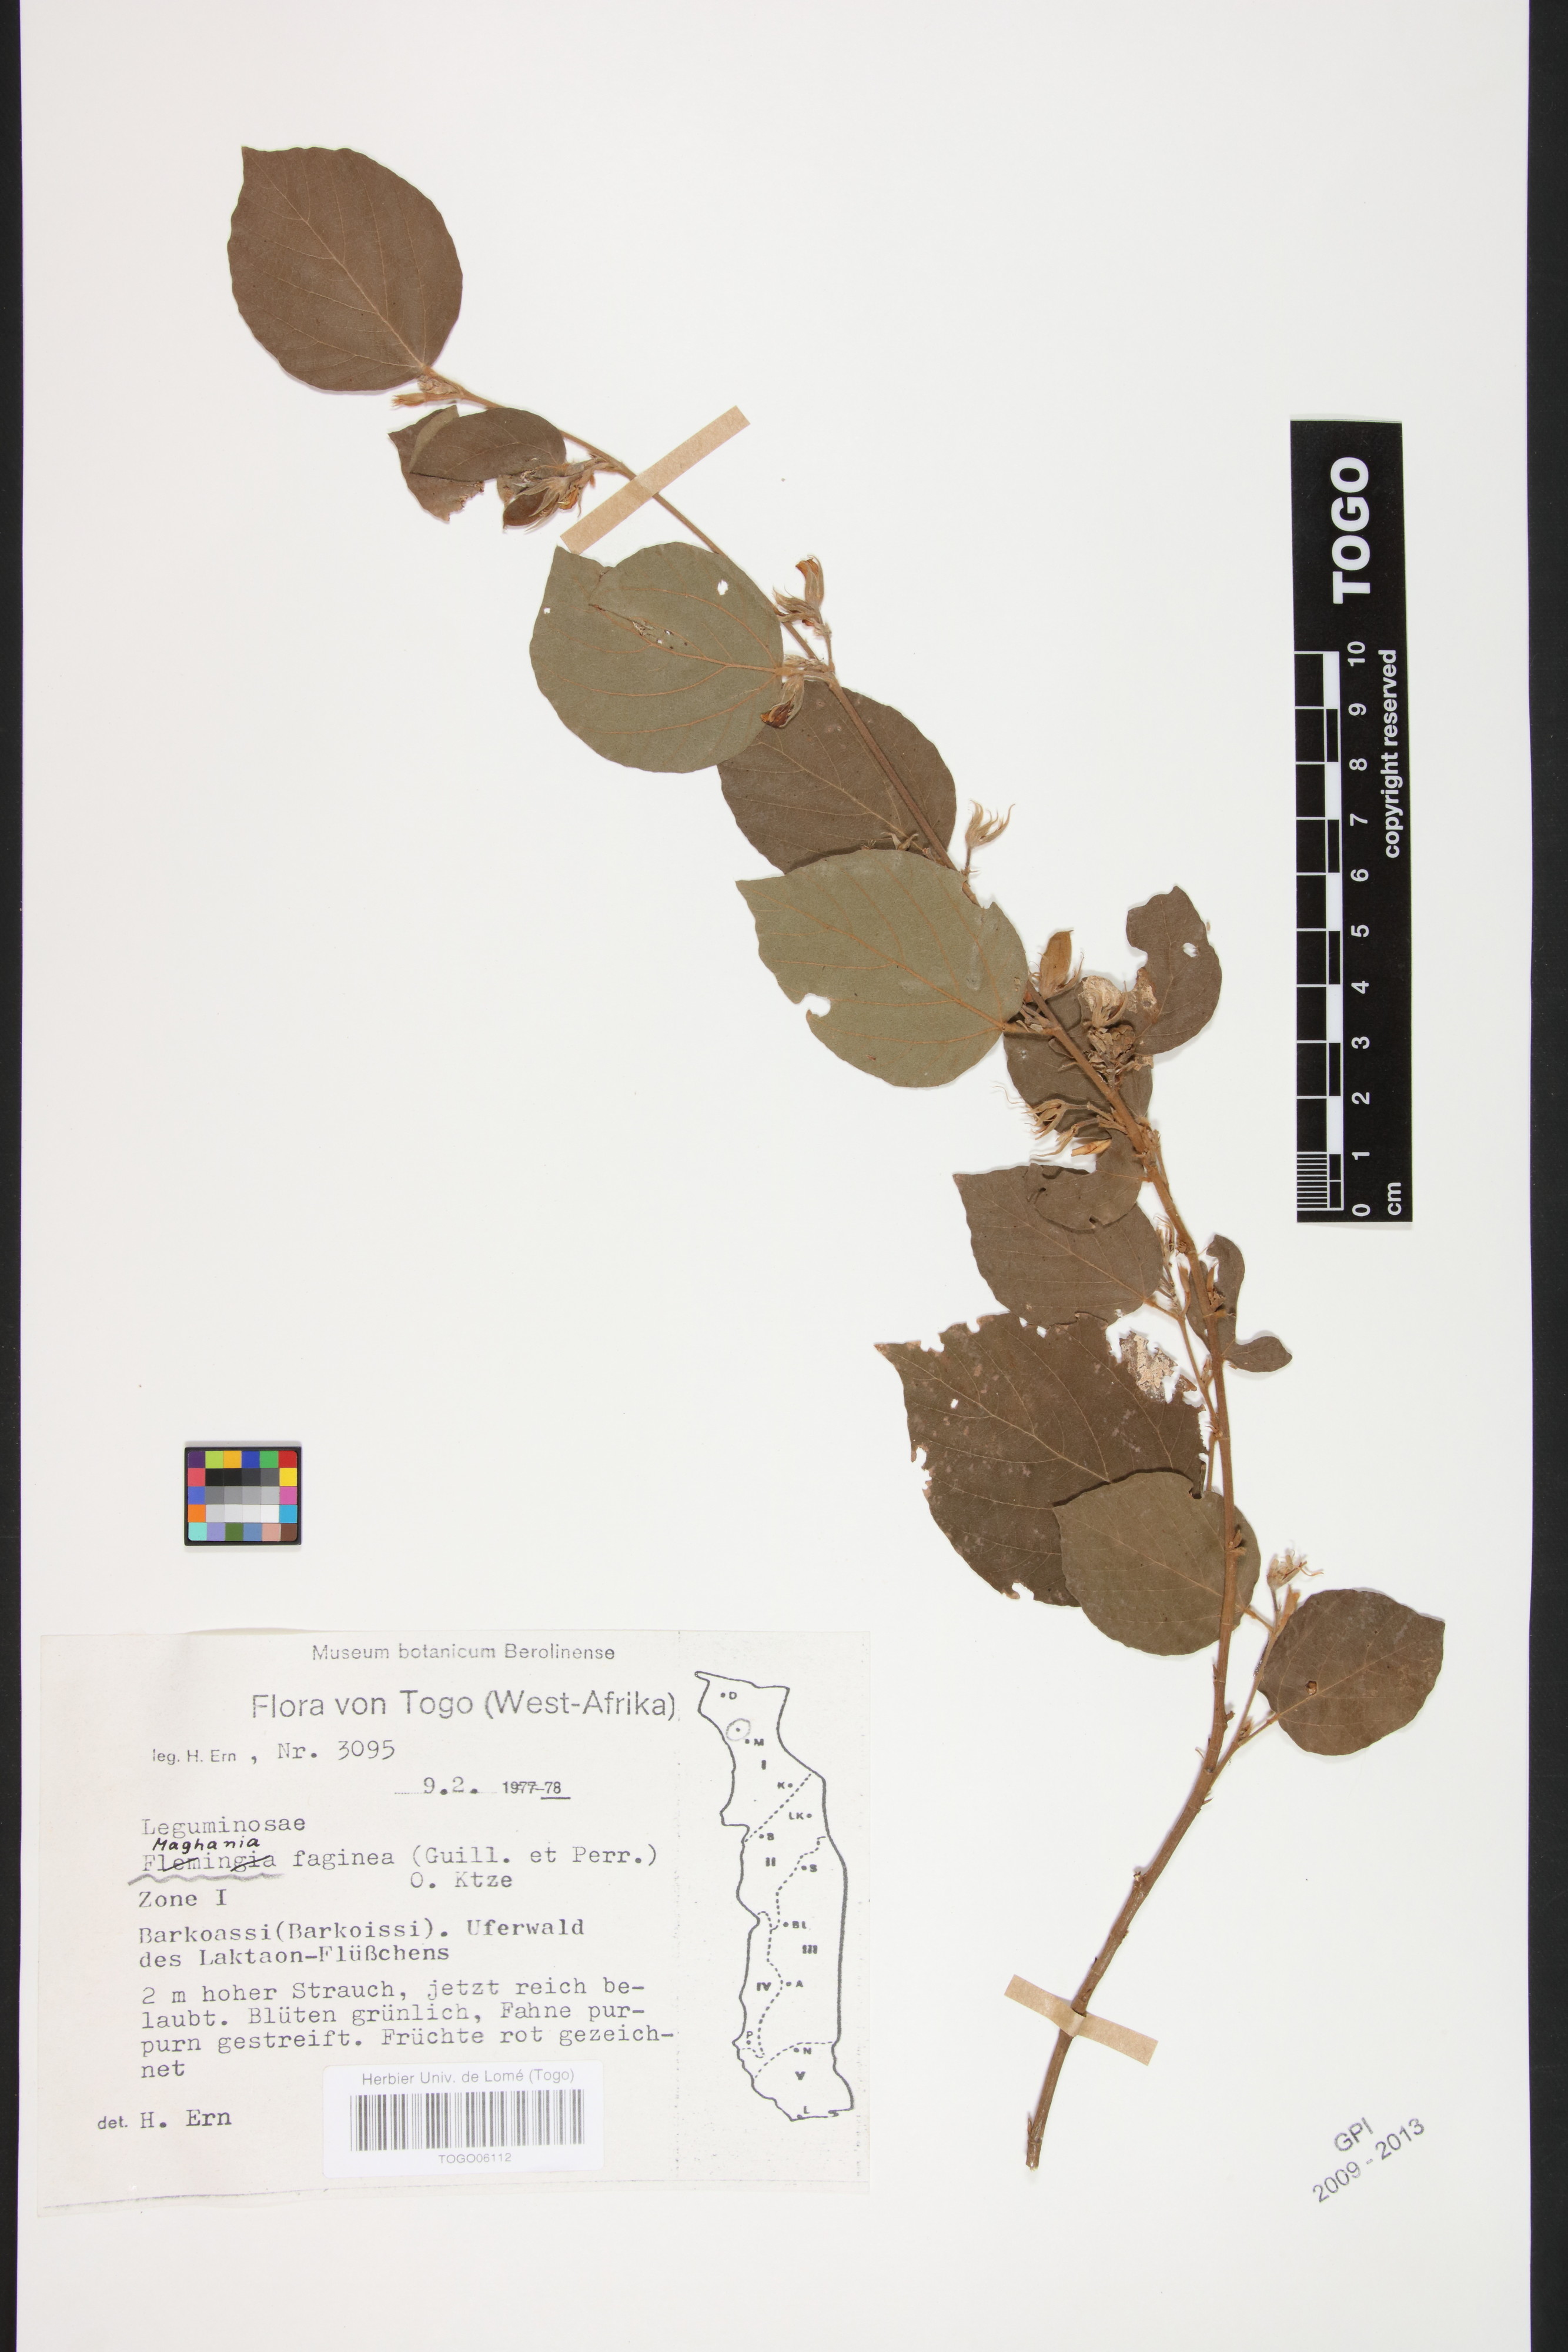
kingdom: Plantae
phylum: Tracheophyta
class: Magnoliopsida
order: Fabales
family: Fabaceae
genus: Maghania
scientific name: Maghania
